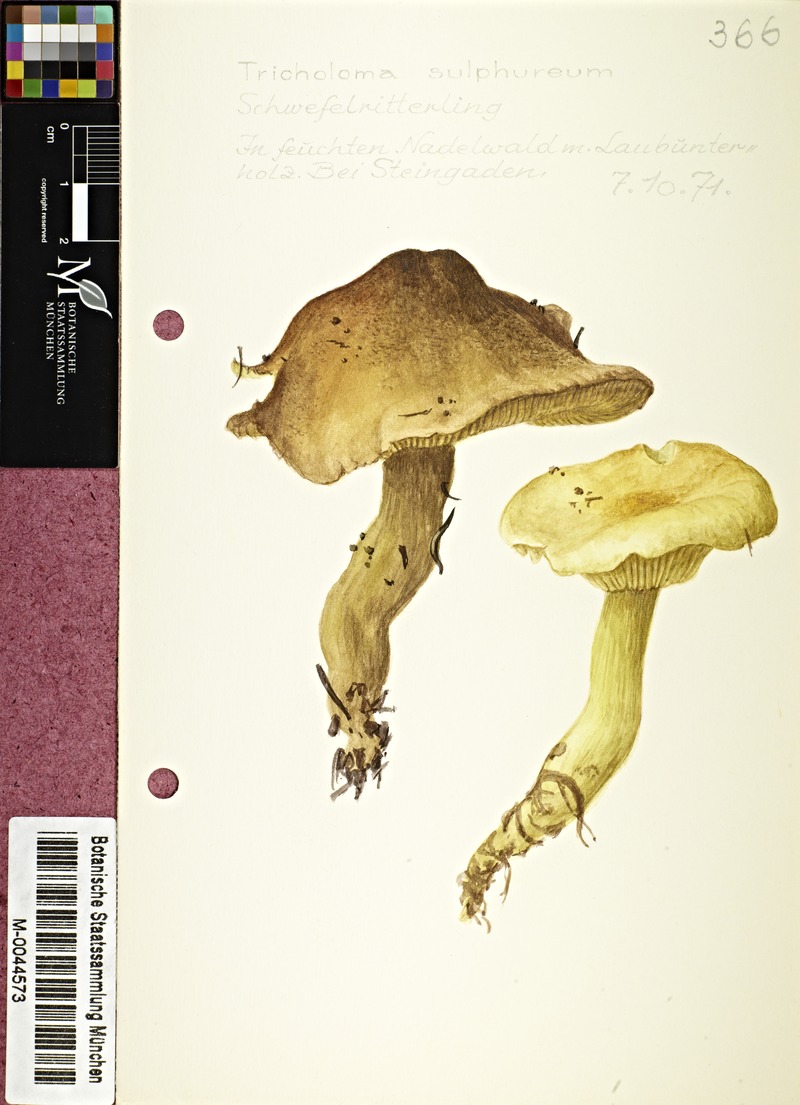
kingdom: Fungi
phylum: Basidiomycota
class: Agaricomycetes
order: Agaricales
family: Tricholomataceae
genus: Tricholoma
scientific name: Tricholoma sulphureum
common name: Stinky knight
